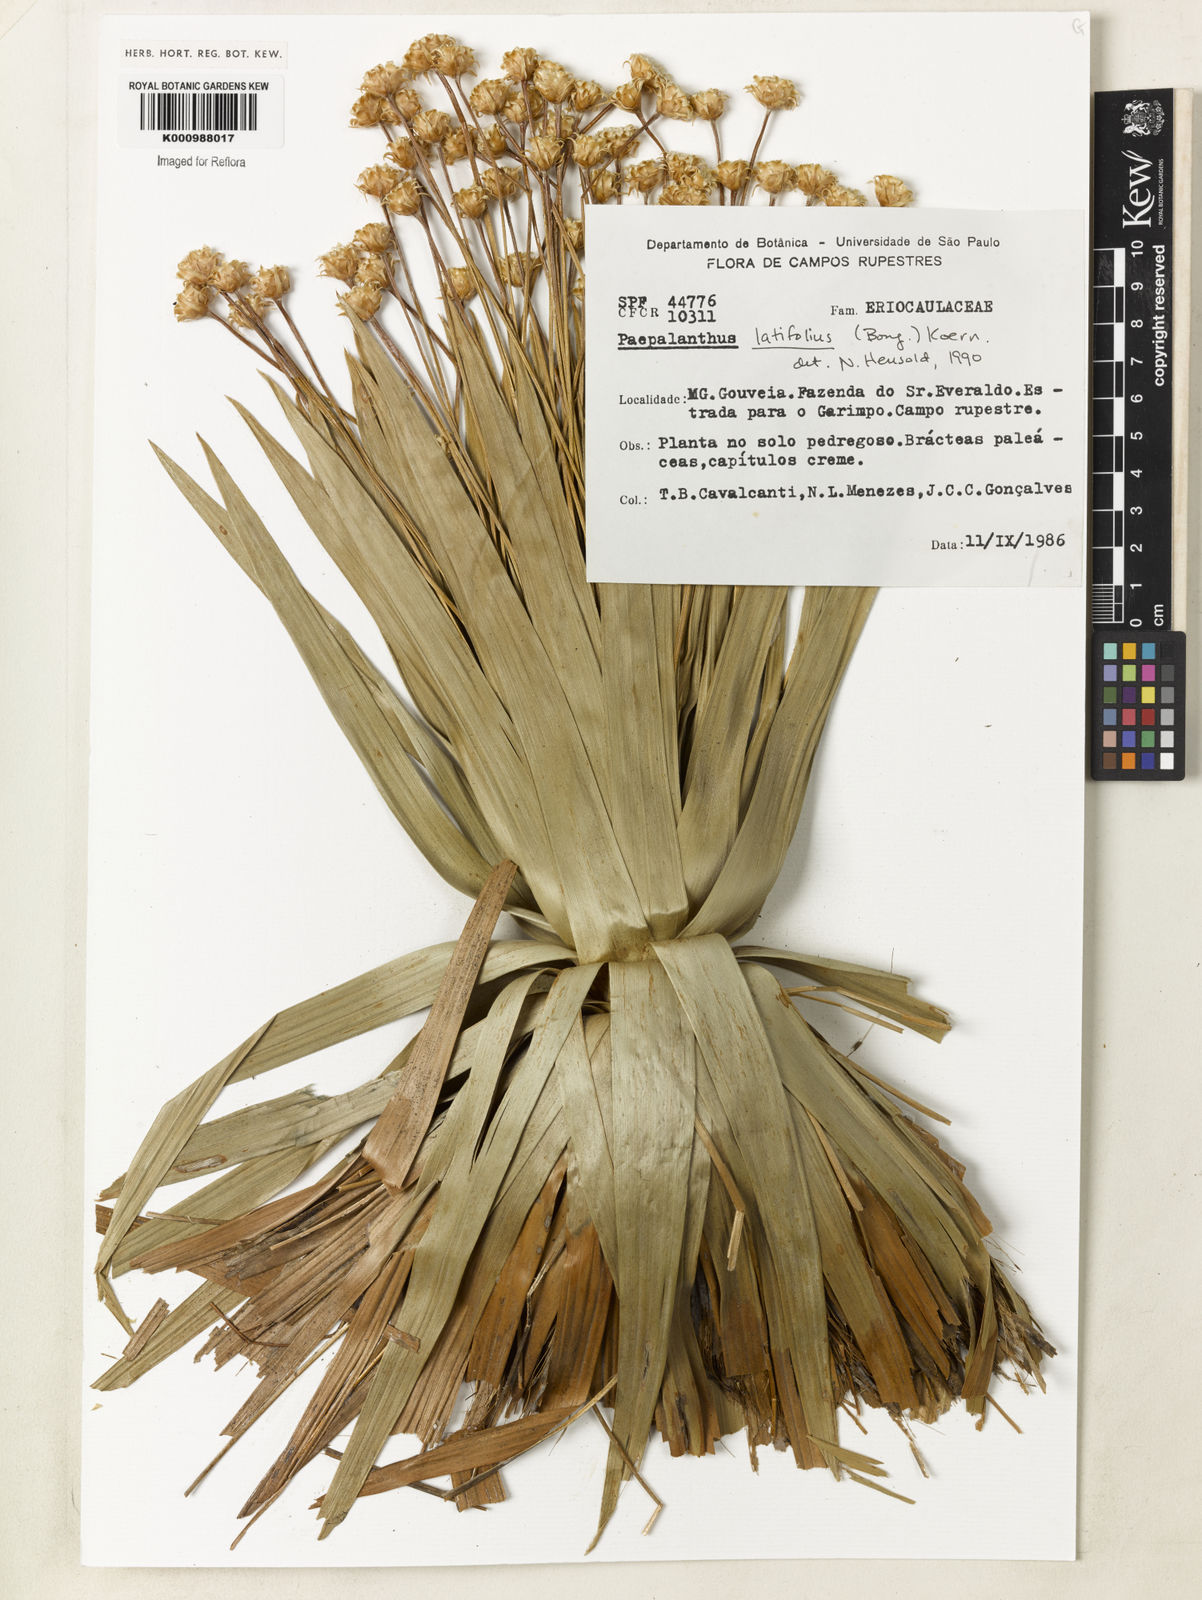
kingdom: Plantae
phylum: Tracheophyta
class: Liliopsida
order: Poales
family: Eriocaulaceae
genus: Paepalanthus
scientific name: Paepalanthus
